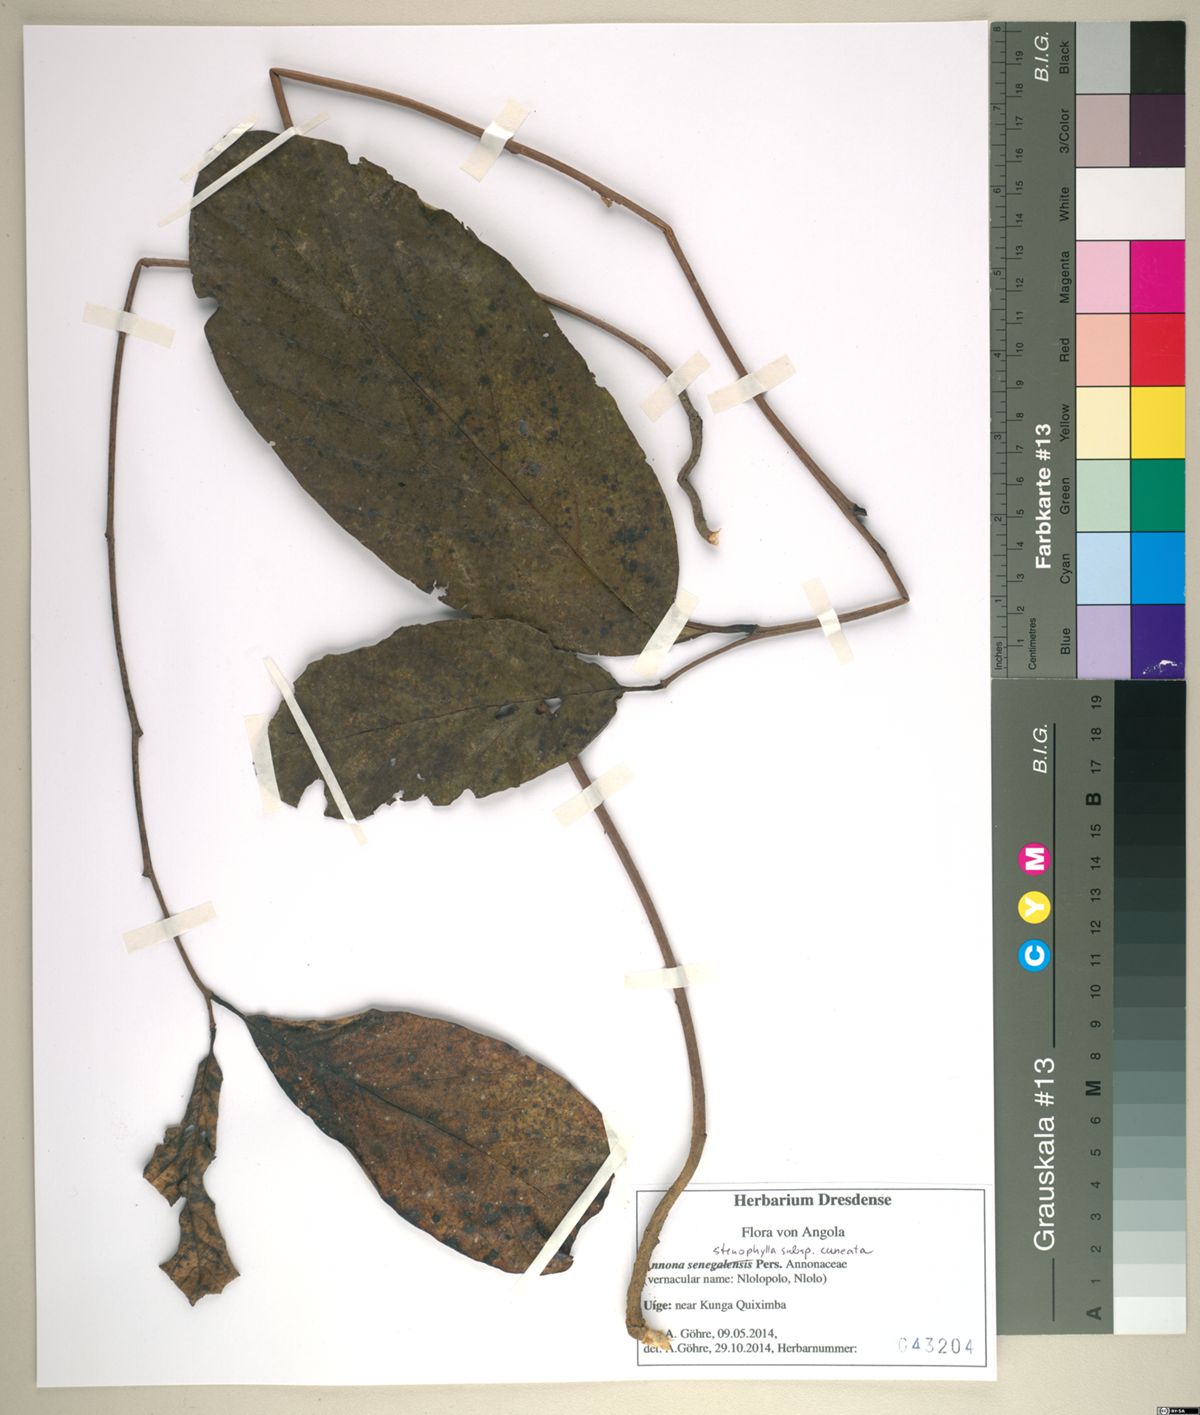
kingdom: Plantae
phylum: Tracheophyta
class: Magnoliopsida
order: Magnoliales
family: Annonaceae
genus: Annona
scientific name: Annona stenophylla
